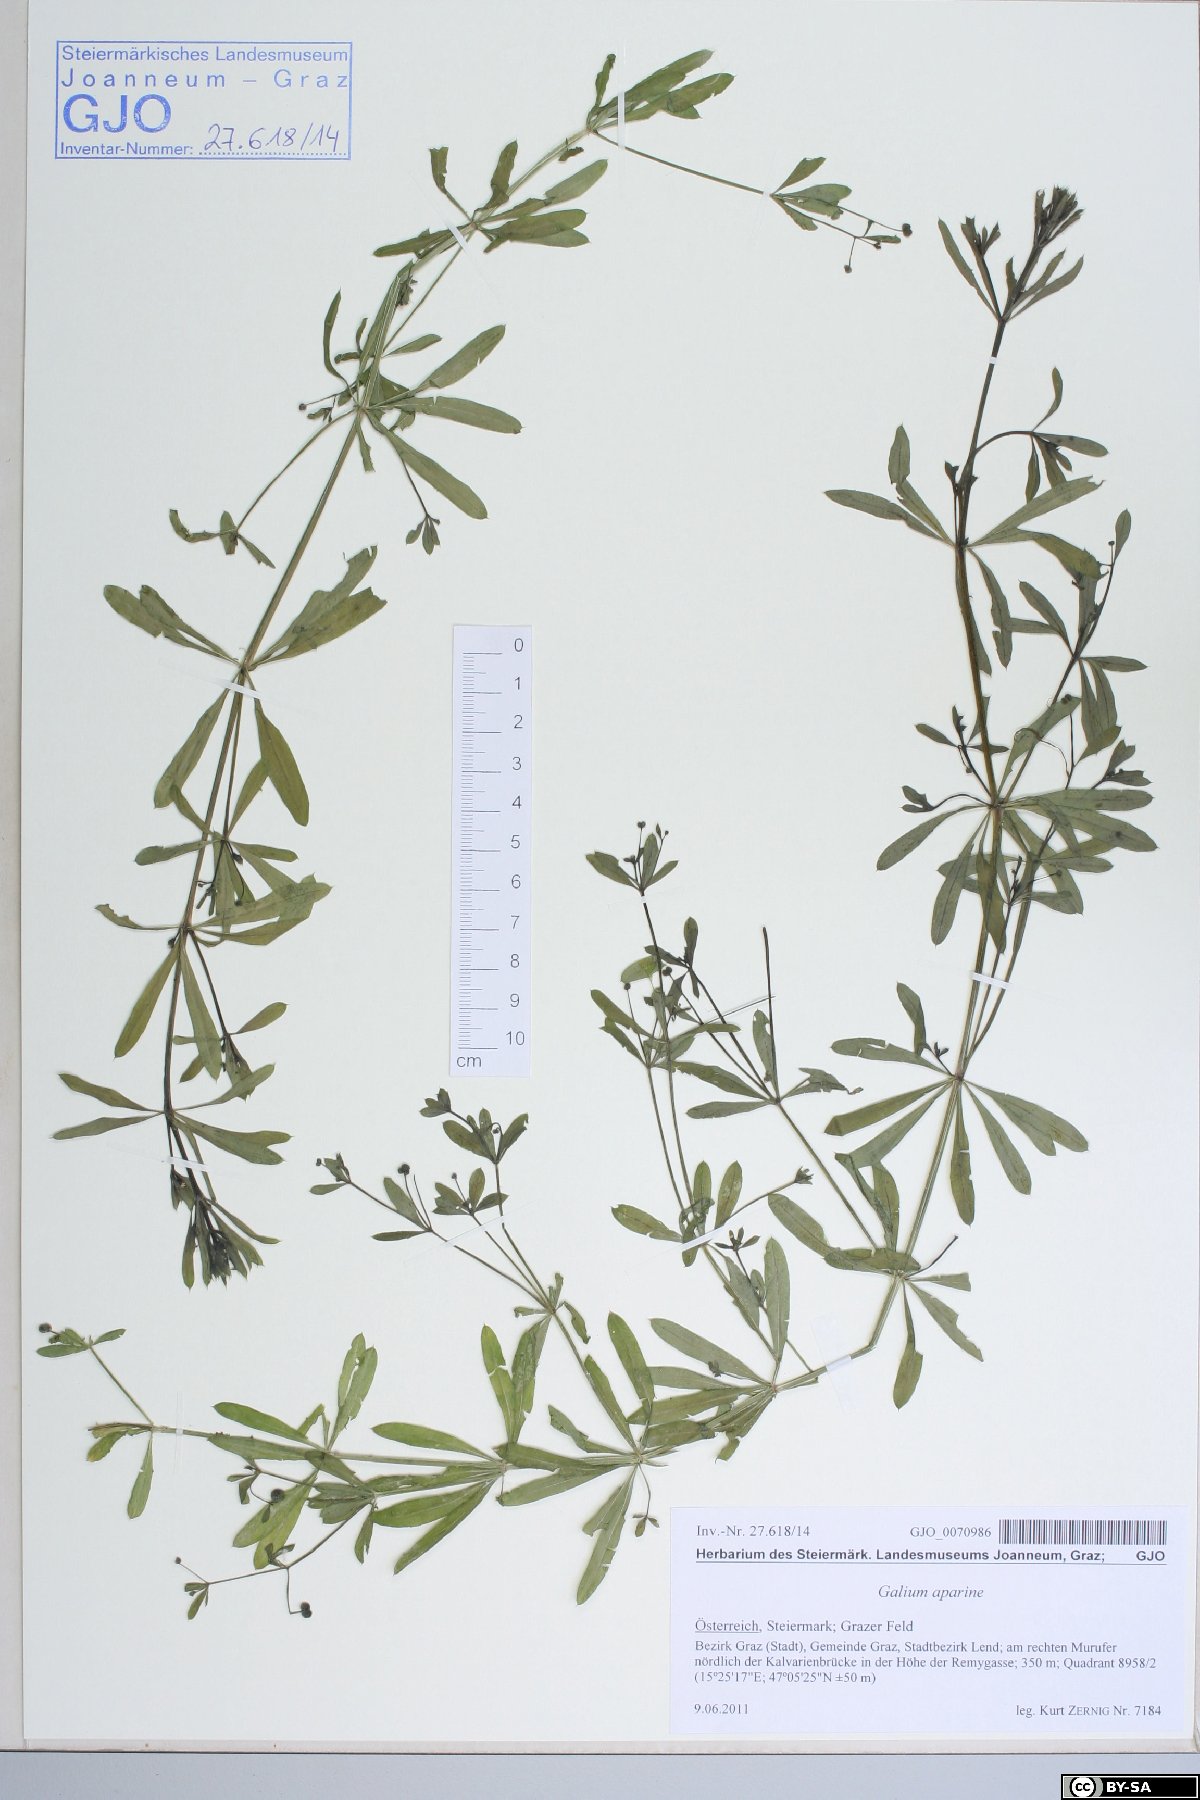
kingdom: Plantae
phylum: Tracheophyta
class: Magnoliopsida
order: Gentianales
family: Rubiaceae
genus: Galium
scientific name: Galium aparine
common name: Cleavers
